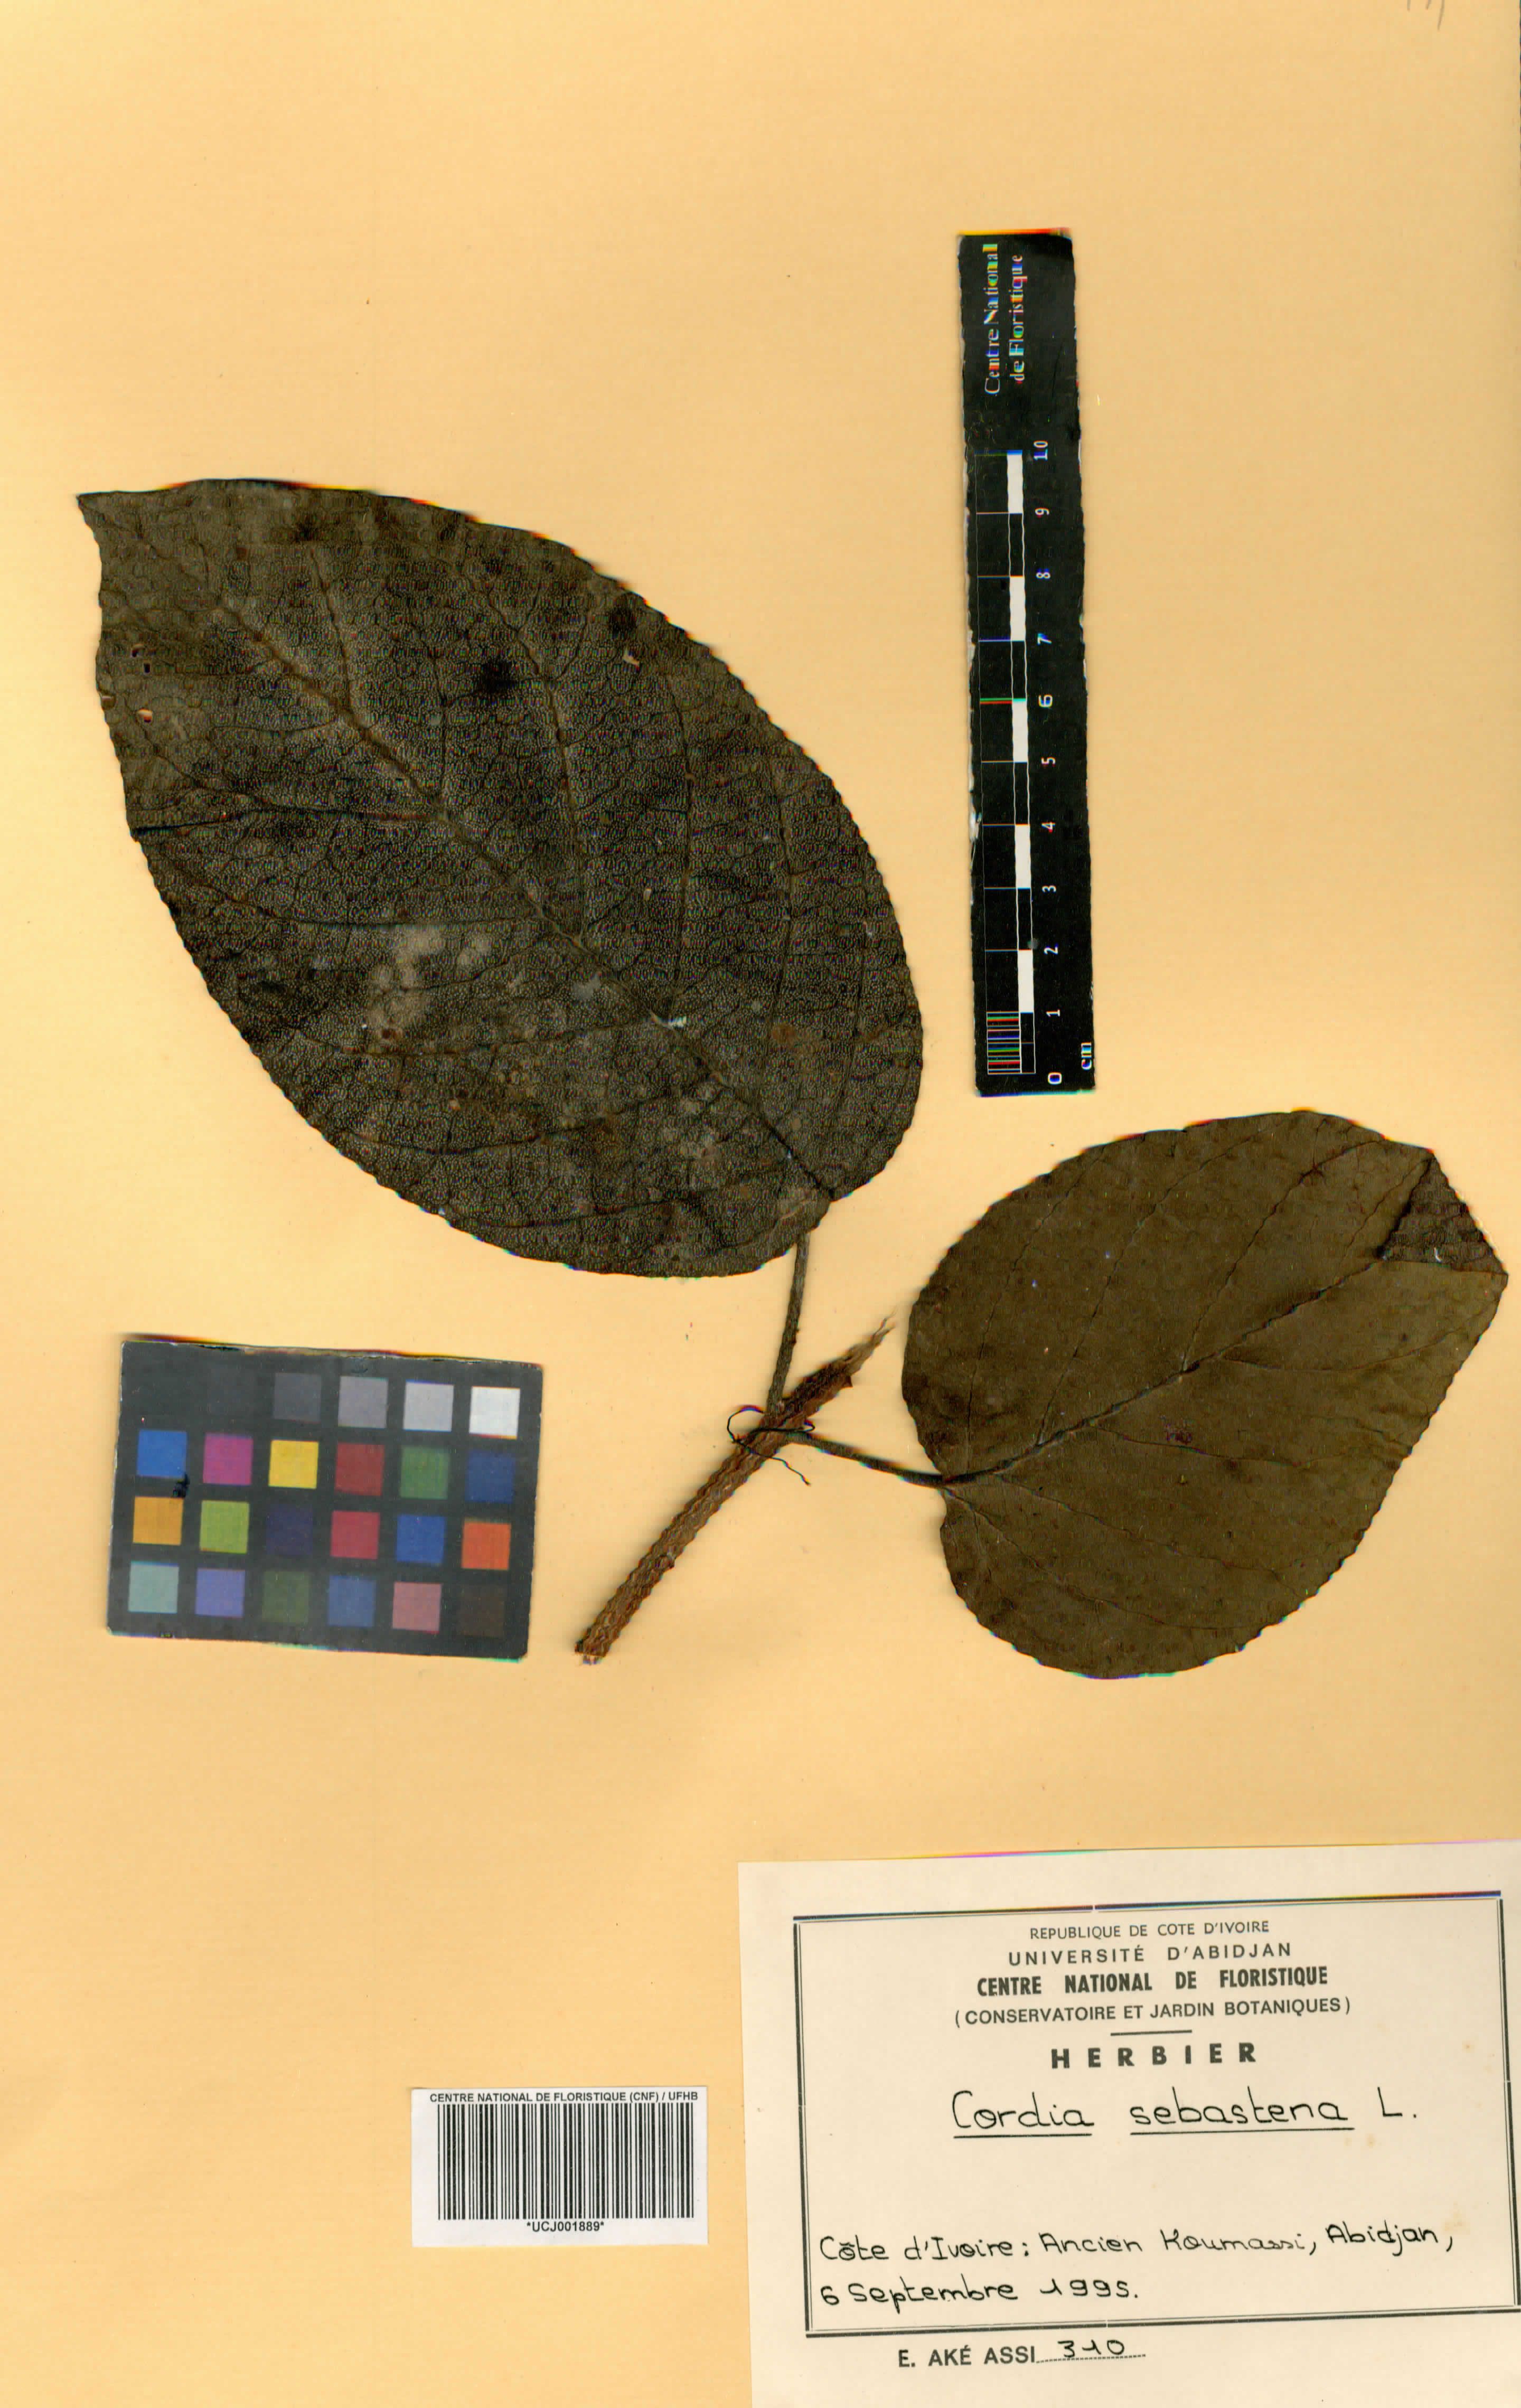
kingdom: Plantae
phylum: Tracheophyta
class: Magnoliopsida
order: Boraginales
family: Cordiaceae
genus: Cordia
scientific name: Cordia sebestena
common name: Largeleaf geigertree
